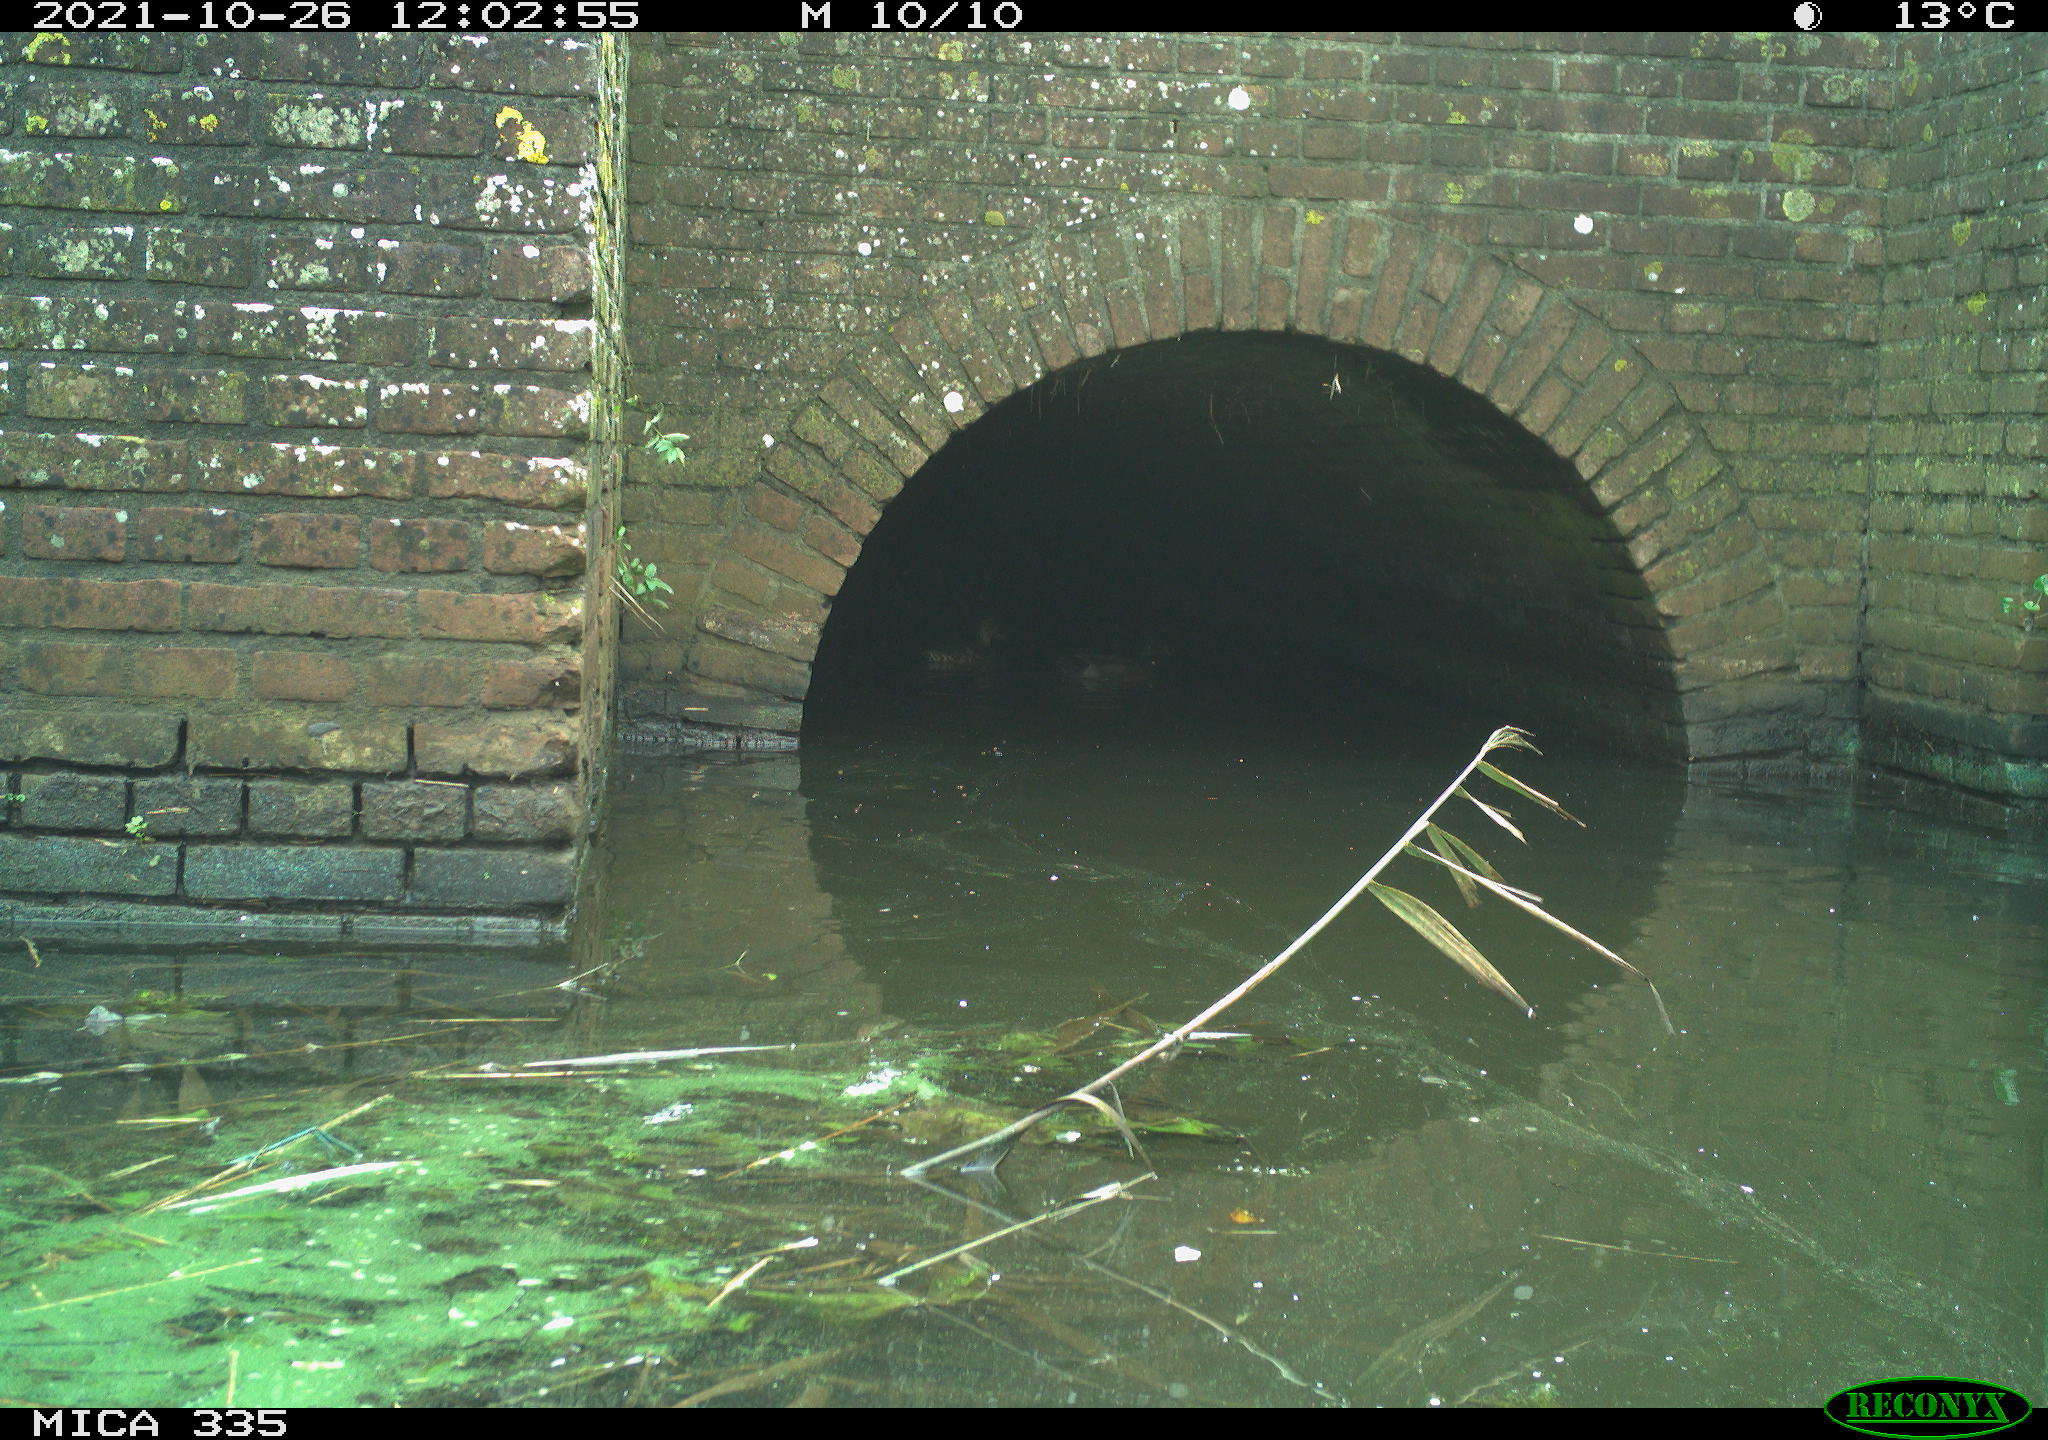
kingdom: Animalia
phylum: Chordata
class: Aves
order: Anseriformes
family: Anatidae
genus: Anas
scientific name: Anas platyrhynchos
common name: Mallard
